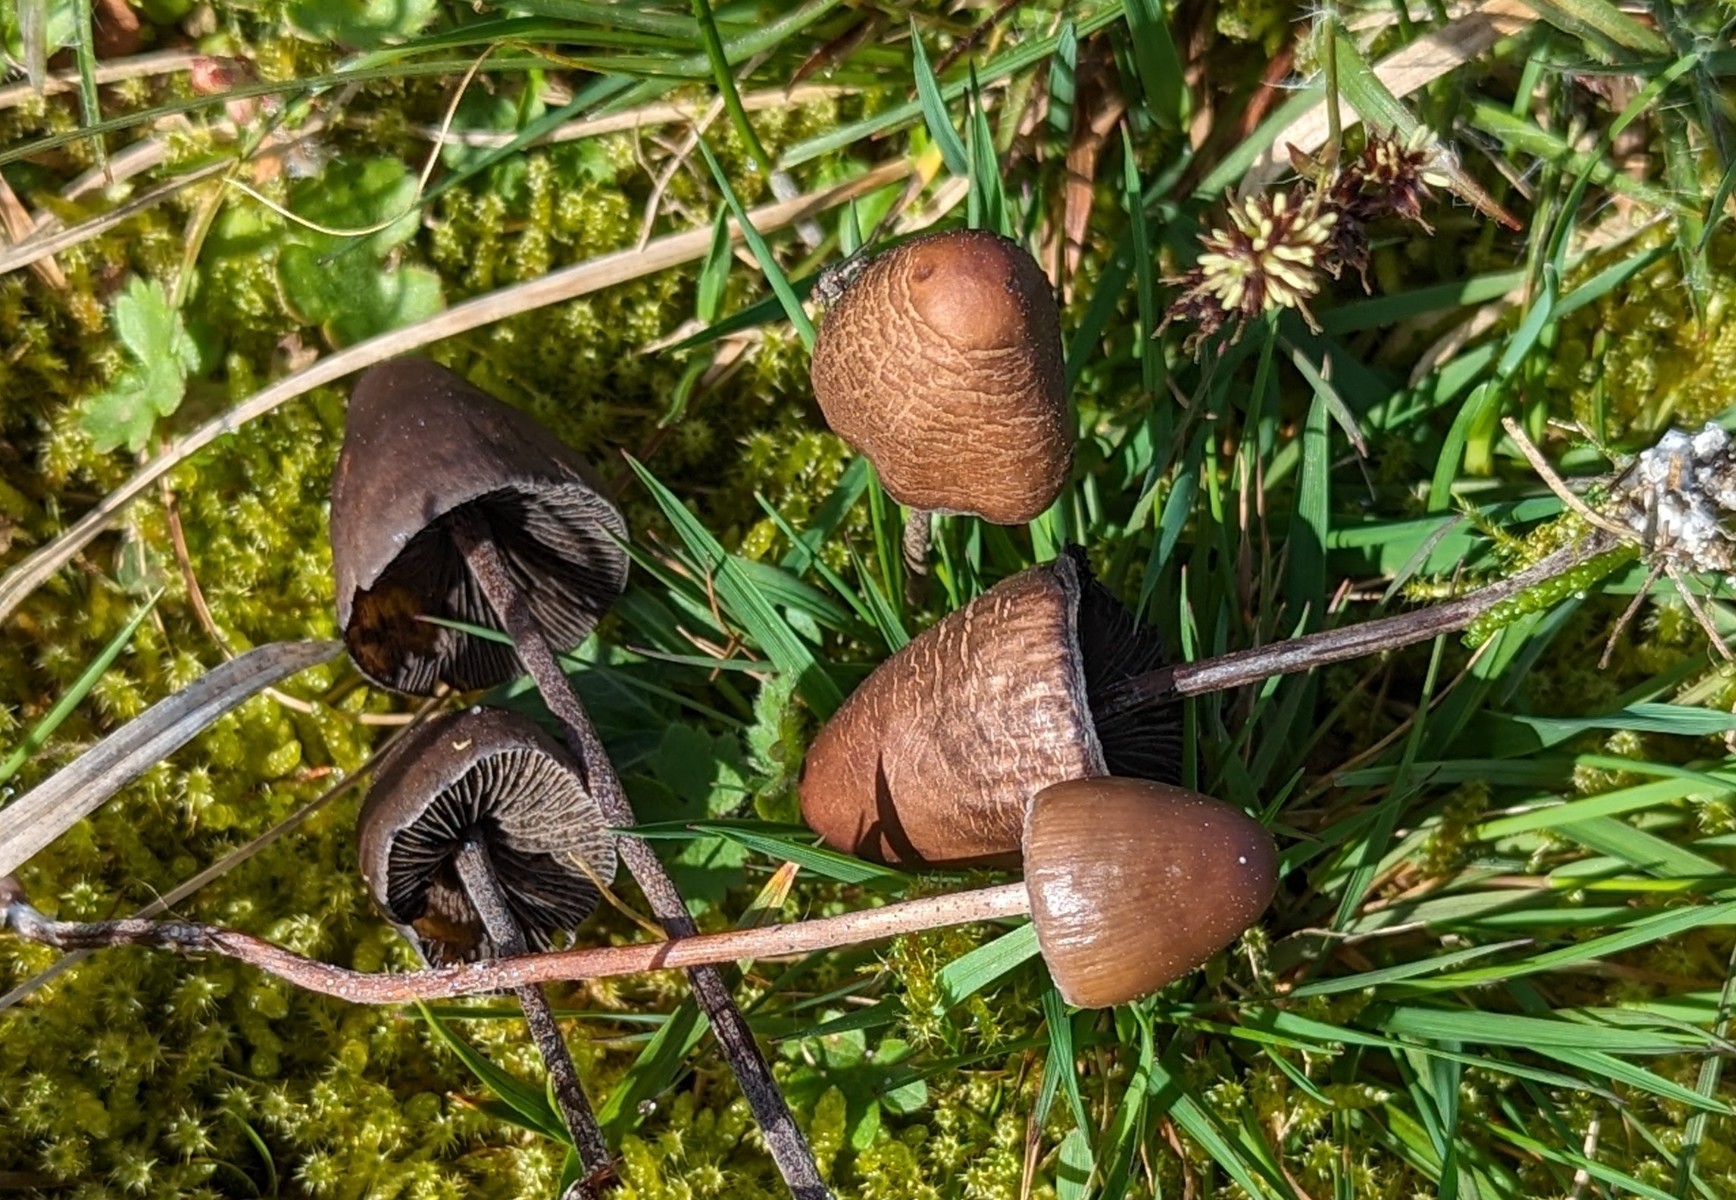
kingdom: Fungi
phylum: Basidiomycota
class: Agaricomycetes
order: Agaricales
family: Bolbitiaceae
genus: Panaeolus
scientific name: Panaeolus acuminatus
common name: høj glanshat
